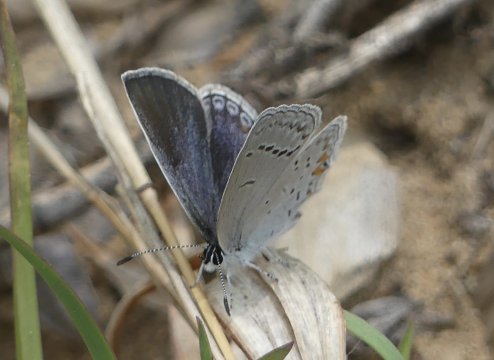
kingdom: Animalia
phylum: Arthropoda
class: Insecta
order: Lepidoptera
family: Lycaenidae
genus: Elkalyce
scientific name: Elkalyce comyntas
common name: Eastern Tailed-Blue
